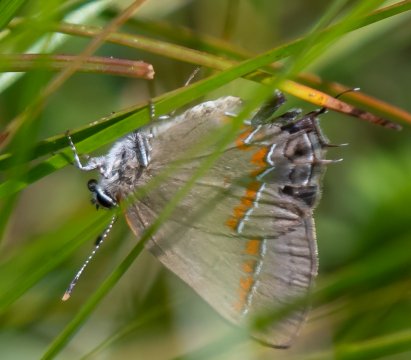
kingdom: Animalia
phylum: Arthropoda
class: Insecta
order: Lepidoptera
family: Lycaenidae
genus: Calycopis
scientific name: Calycopis cecrops
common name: Red-banded Hairstreak
